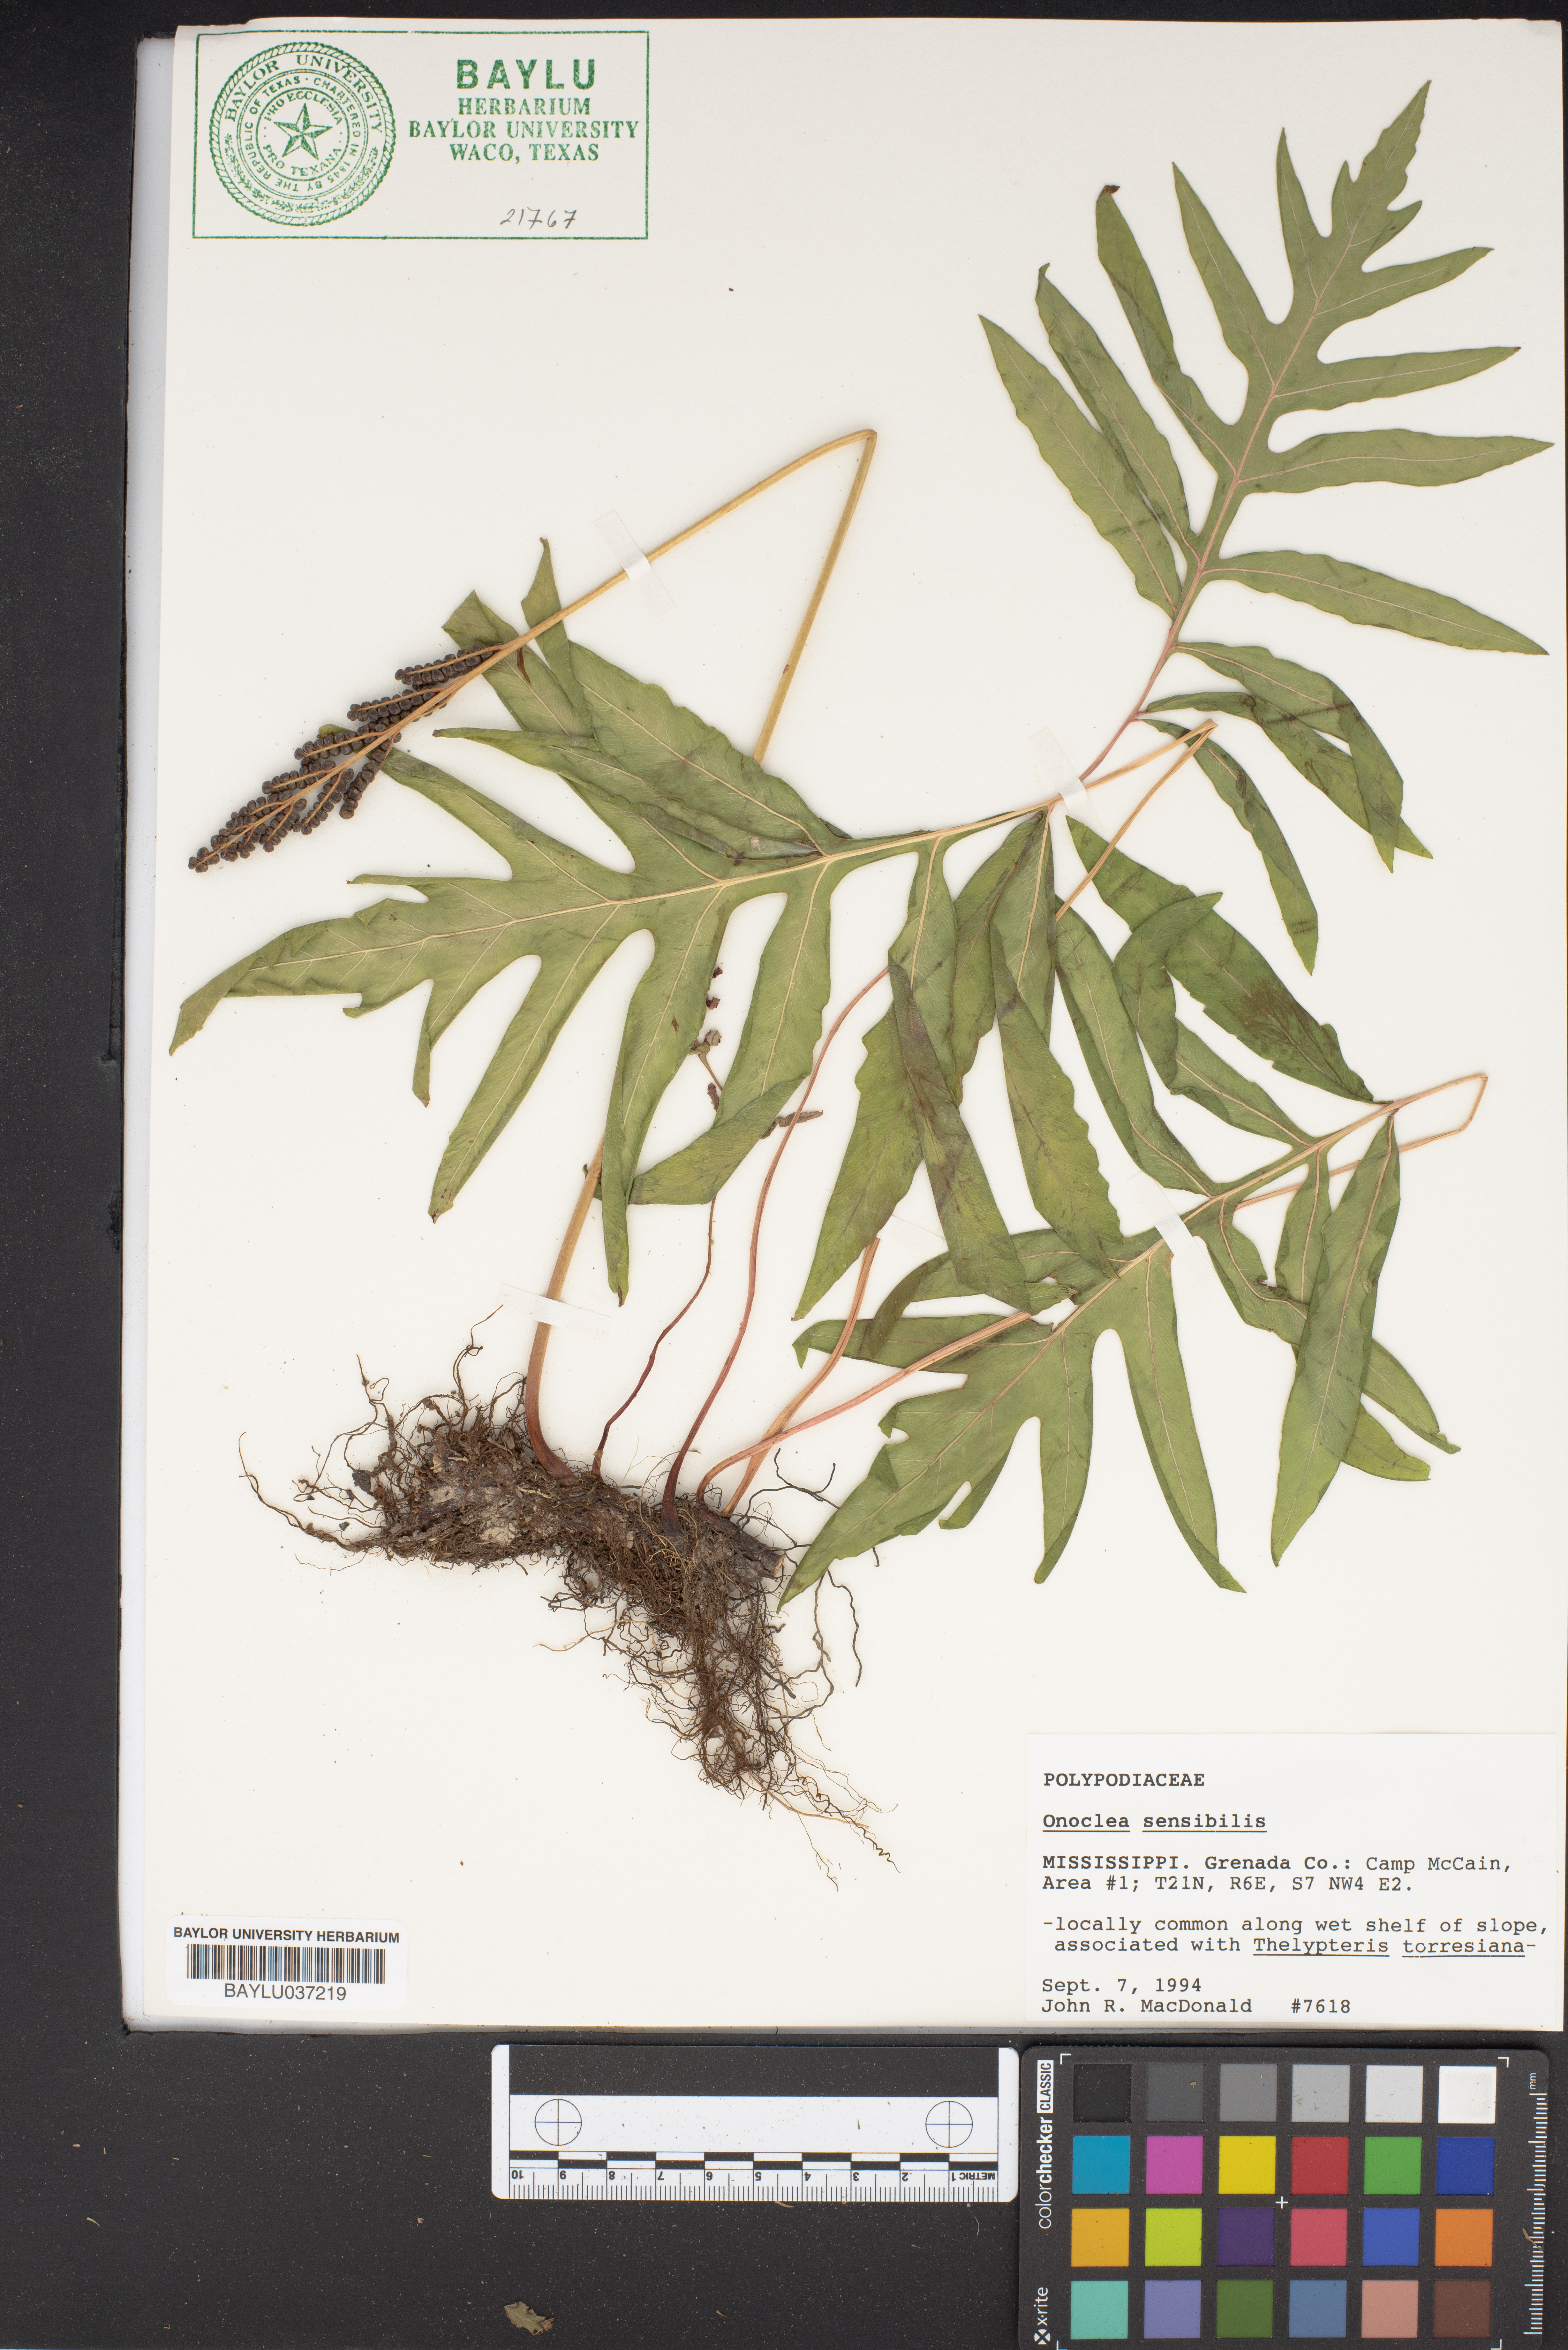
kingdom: Plantae
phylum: Tracheophyta
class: Polypodiopsida
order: Polypodiales
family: Onocleaceae
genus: Onoclea
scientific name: Onoclea sensibilis
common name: Sensitive fern
